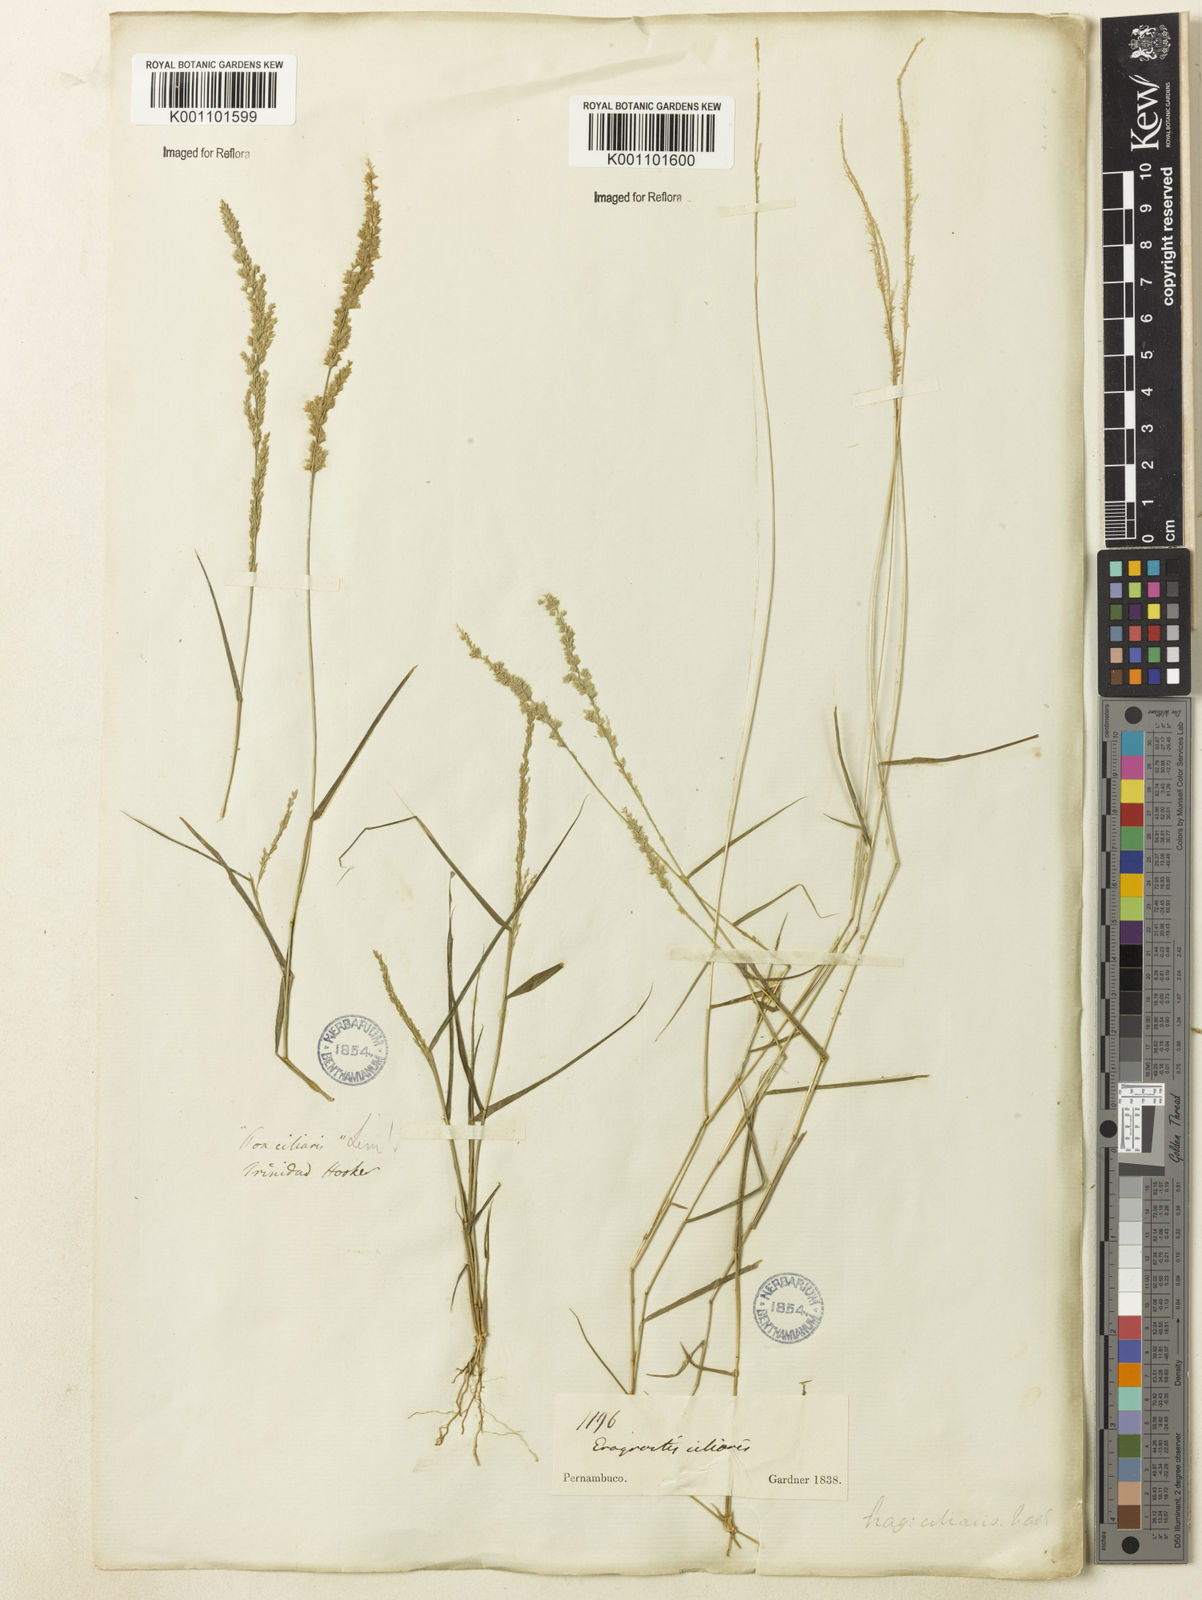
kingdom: Plantae
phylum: Tracheophyta
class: Liliopsida
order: Poales
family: Poaceae
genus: Eragrostis
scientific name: Eragrostis ciliaris
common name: Gophertail lovegrass
